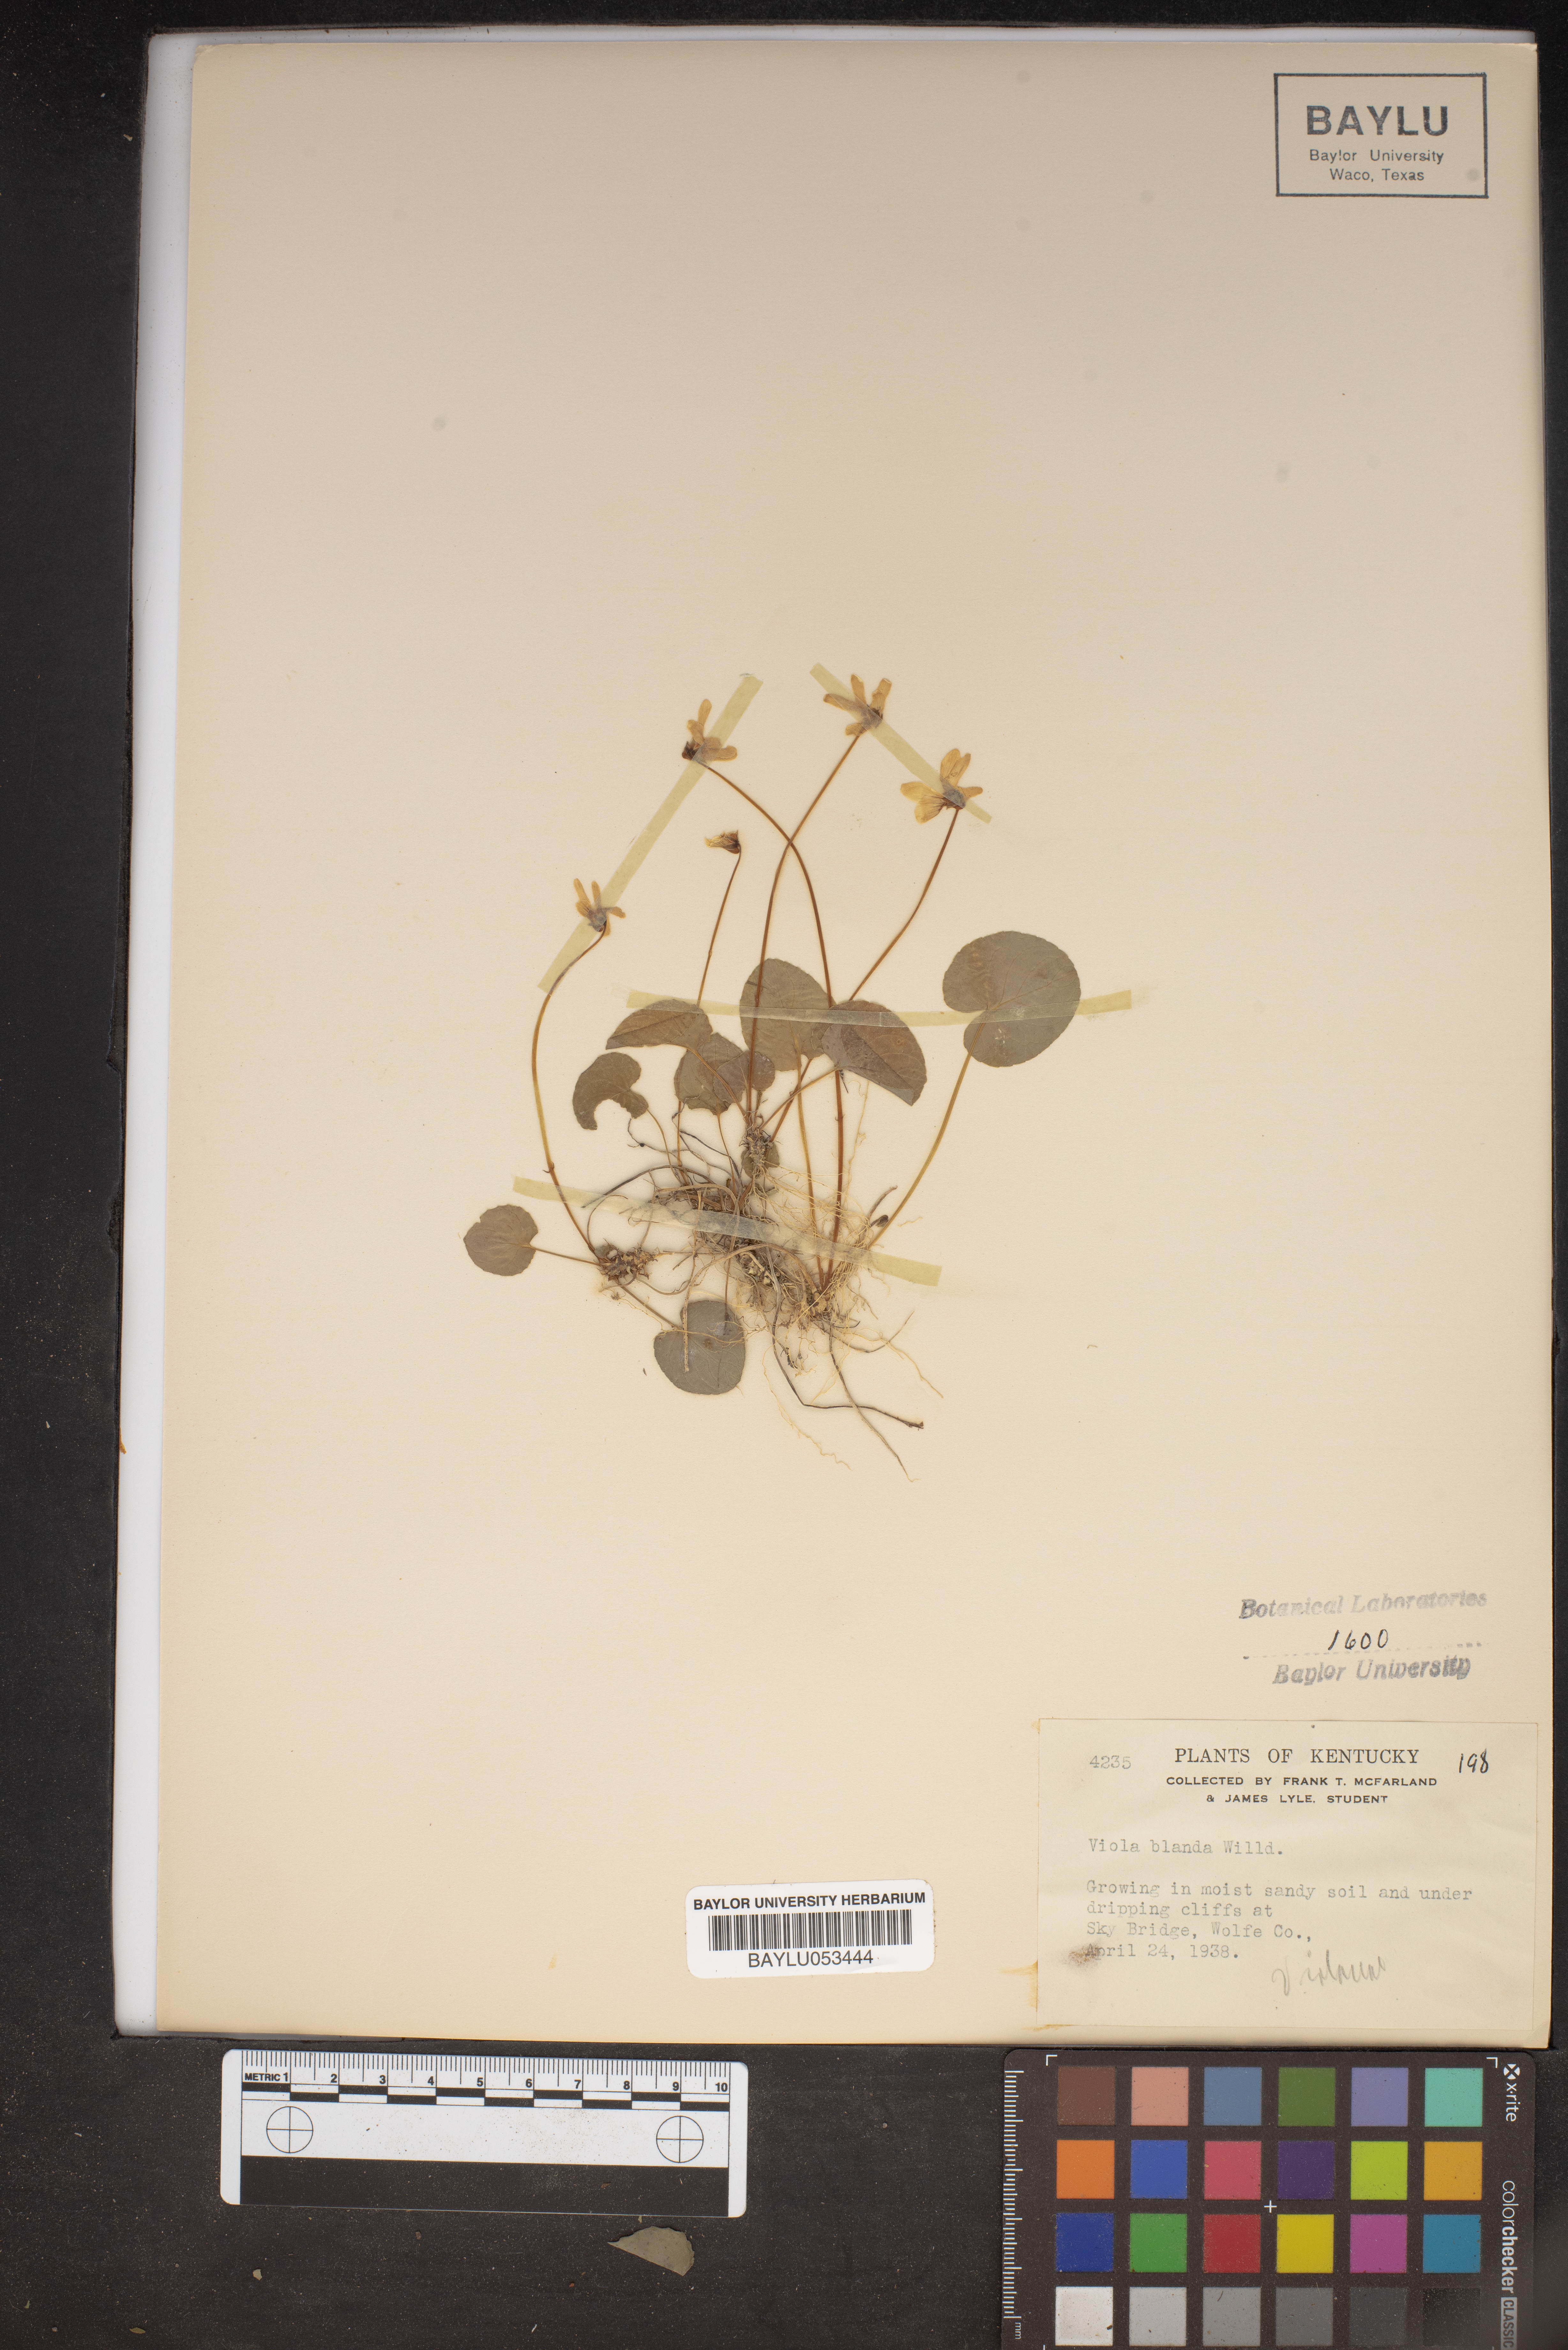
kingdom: Plantae
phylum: Tracheophyta
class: Magnoliopsida
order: Malpighiales
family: Violaceae
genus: Viola
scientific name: Viola blanda
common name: Sweet white violet
